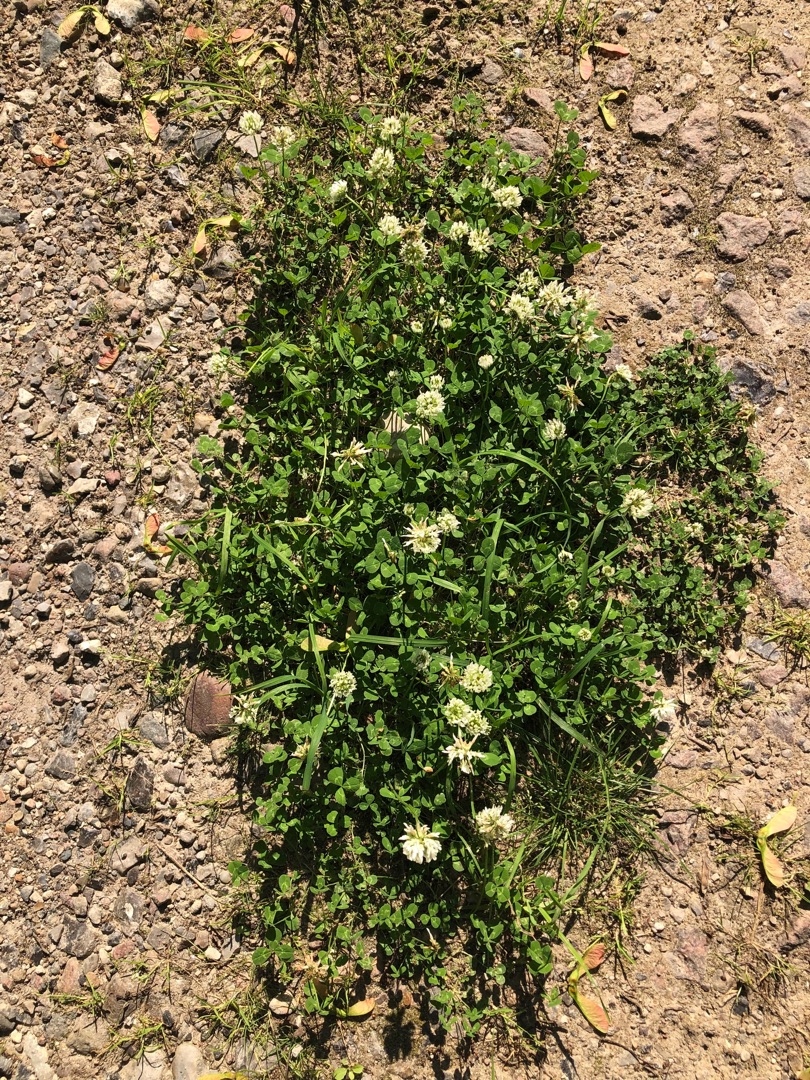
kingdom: Plantae
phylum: Tracheophyta
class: Magnoliopsida
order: Fabales
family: Fabaceae
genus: Trifolium
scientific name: Trifolium repens
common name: Hvid-kløver
